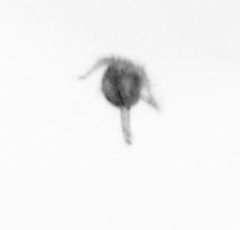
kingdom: Animalia
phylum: Arthropoda
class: Copepoda
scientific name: Copepoda
